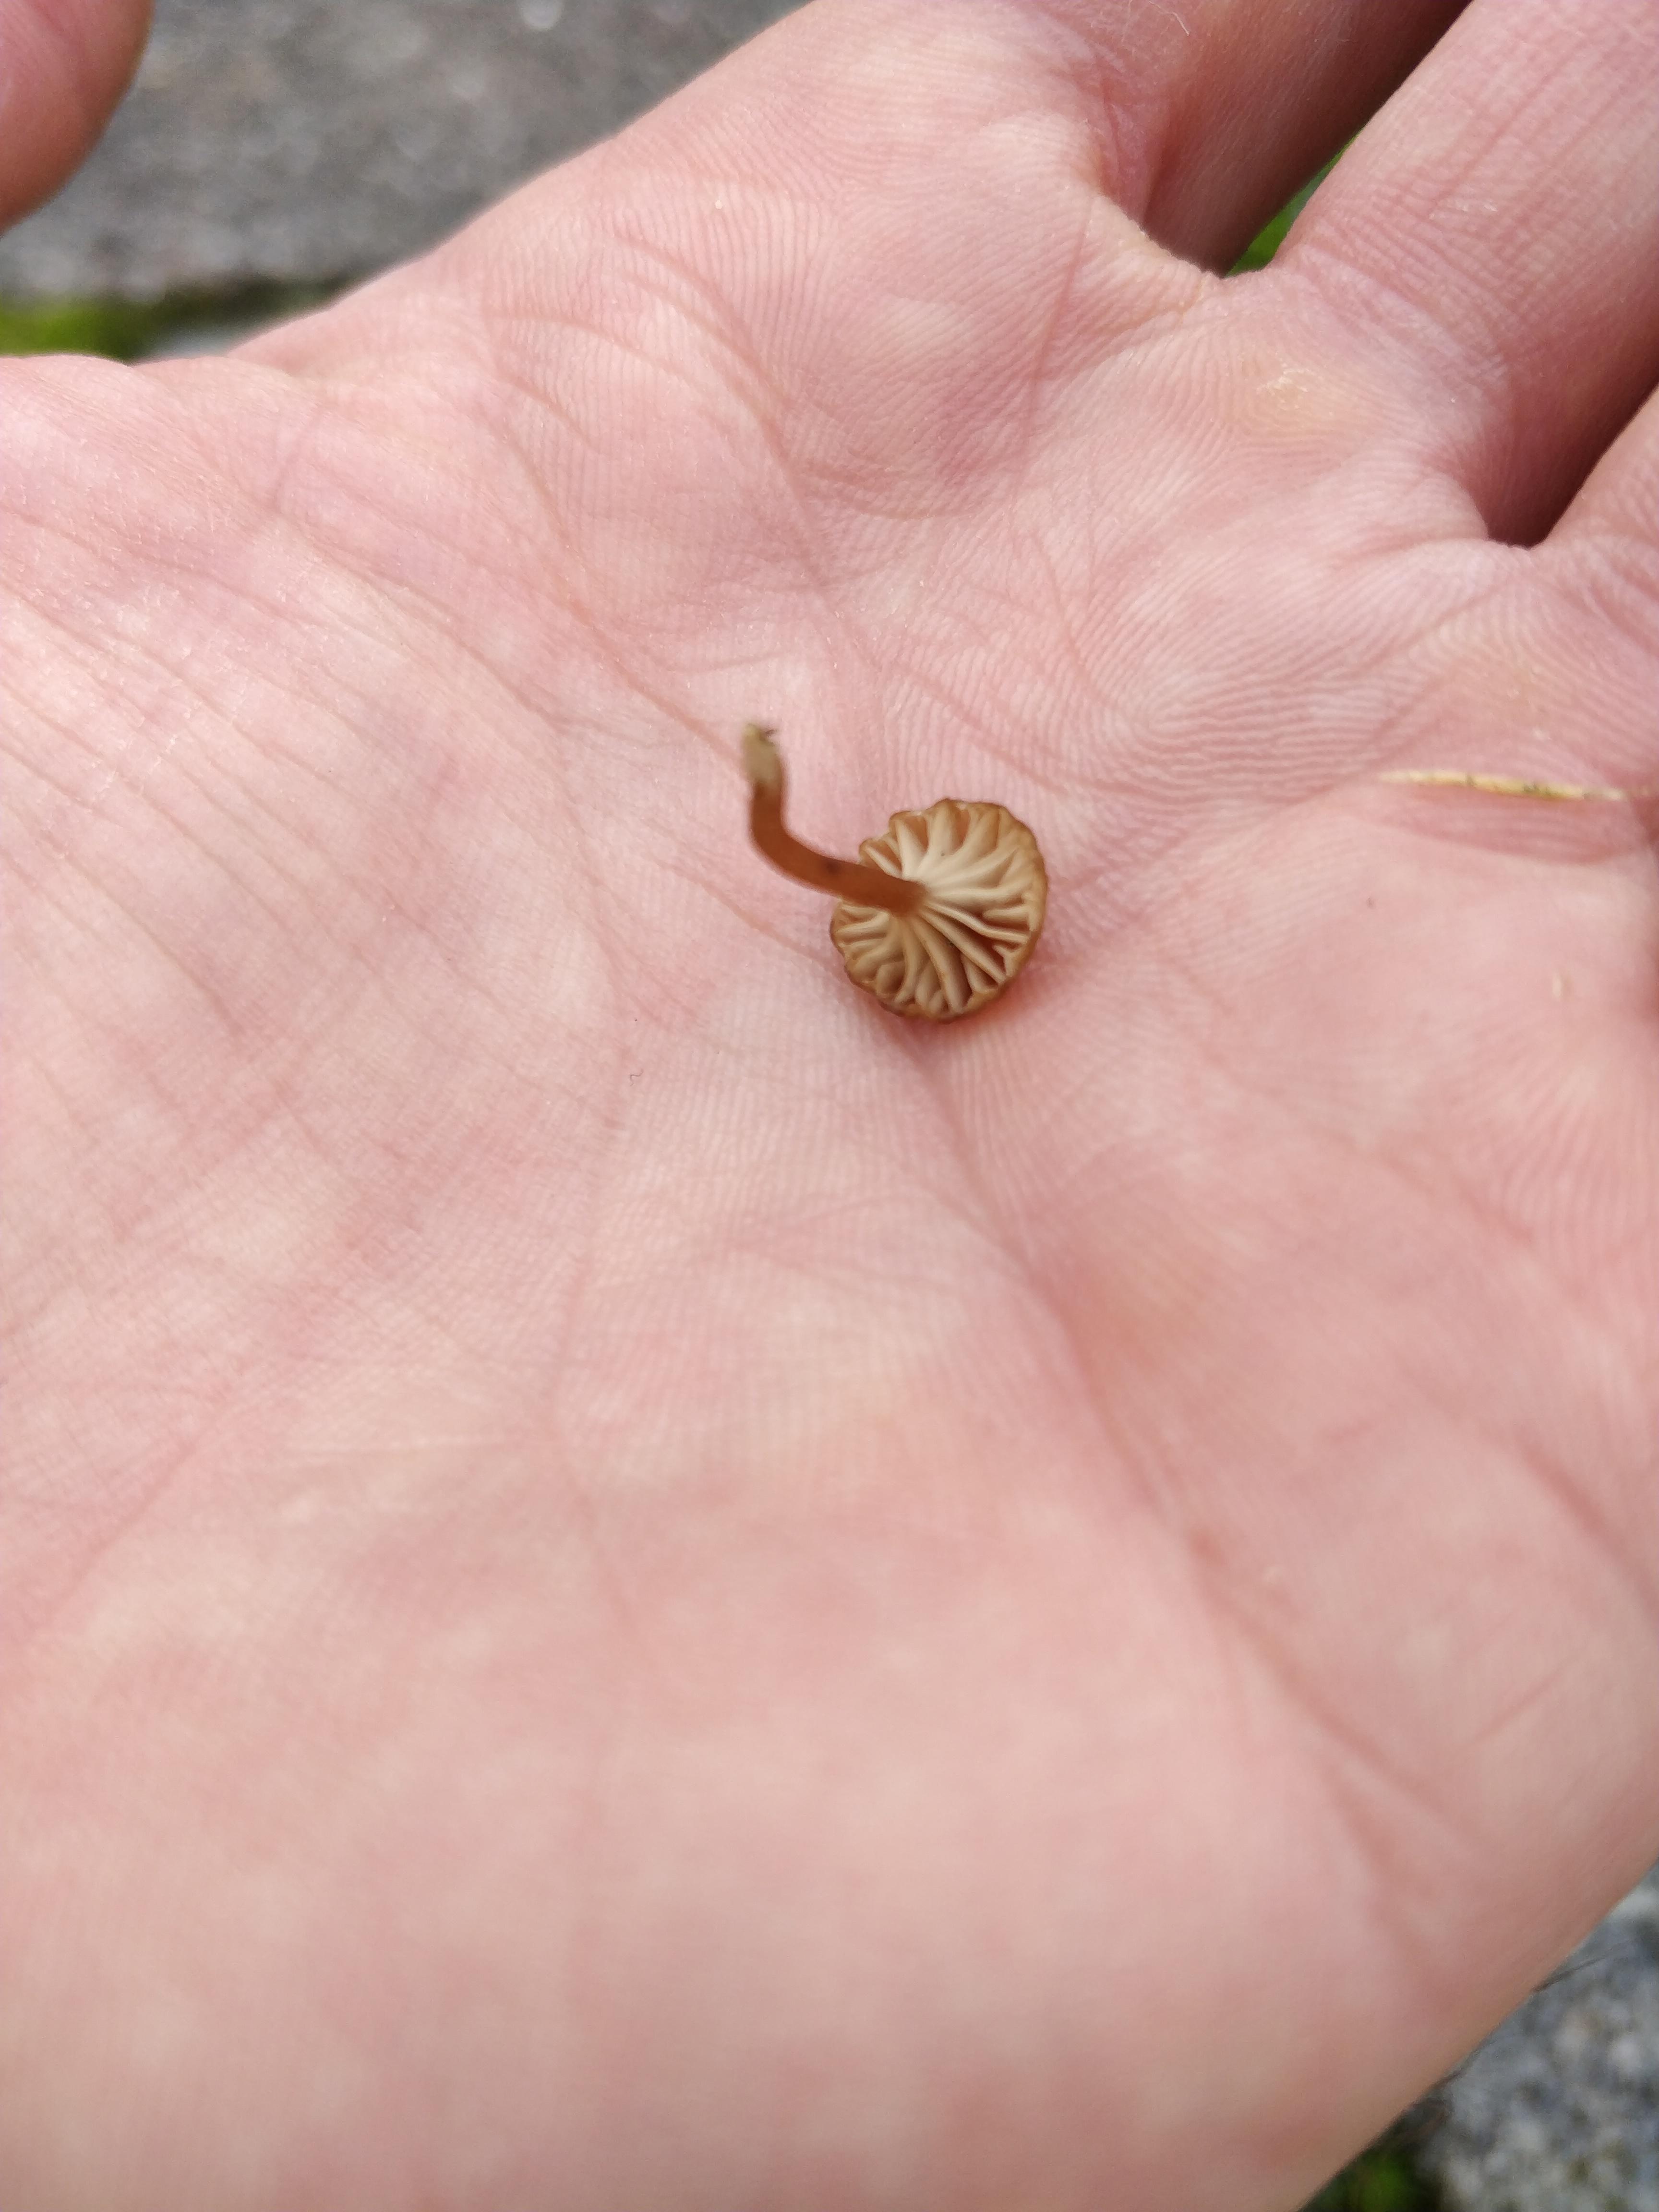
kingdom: Fungi
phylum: Basidiomycota
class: Agaricomycetes
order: Agaricales
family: Tricholomataceae
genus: Omphalina
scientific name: Omphalina pyxidata
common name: rødbrun navlehat
